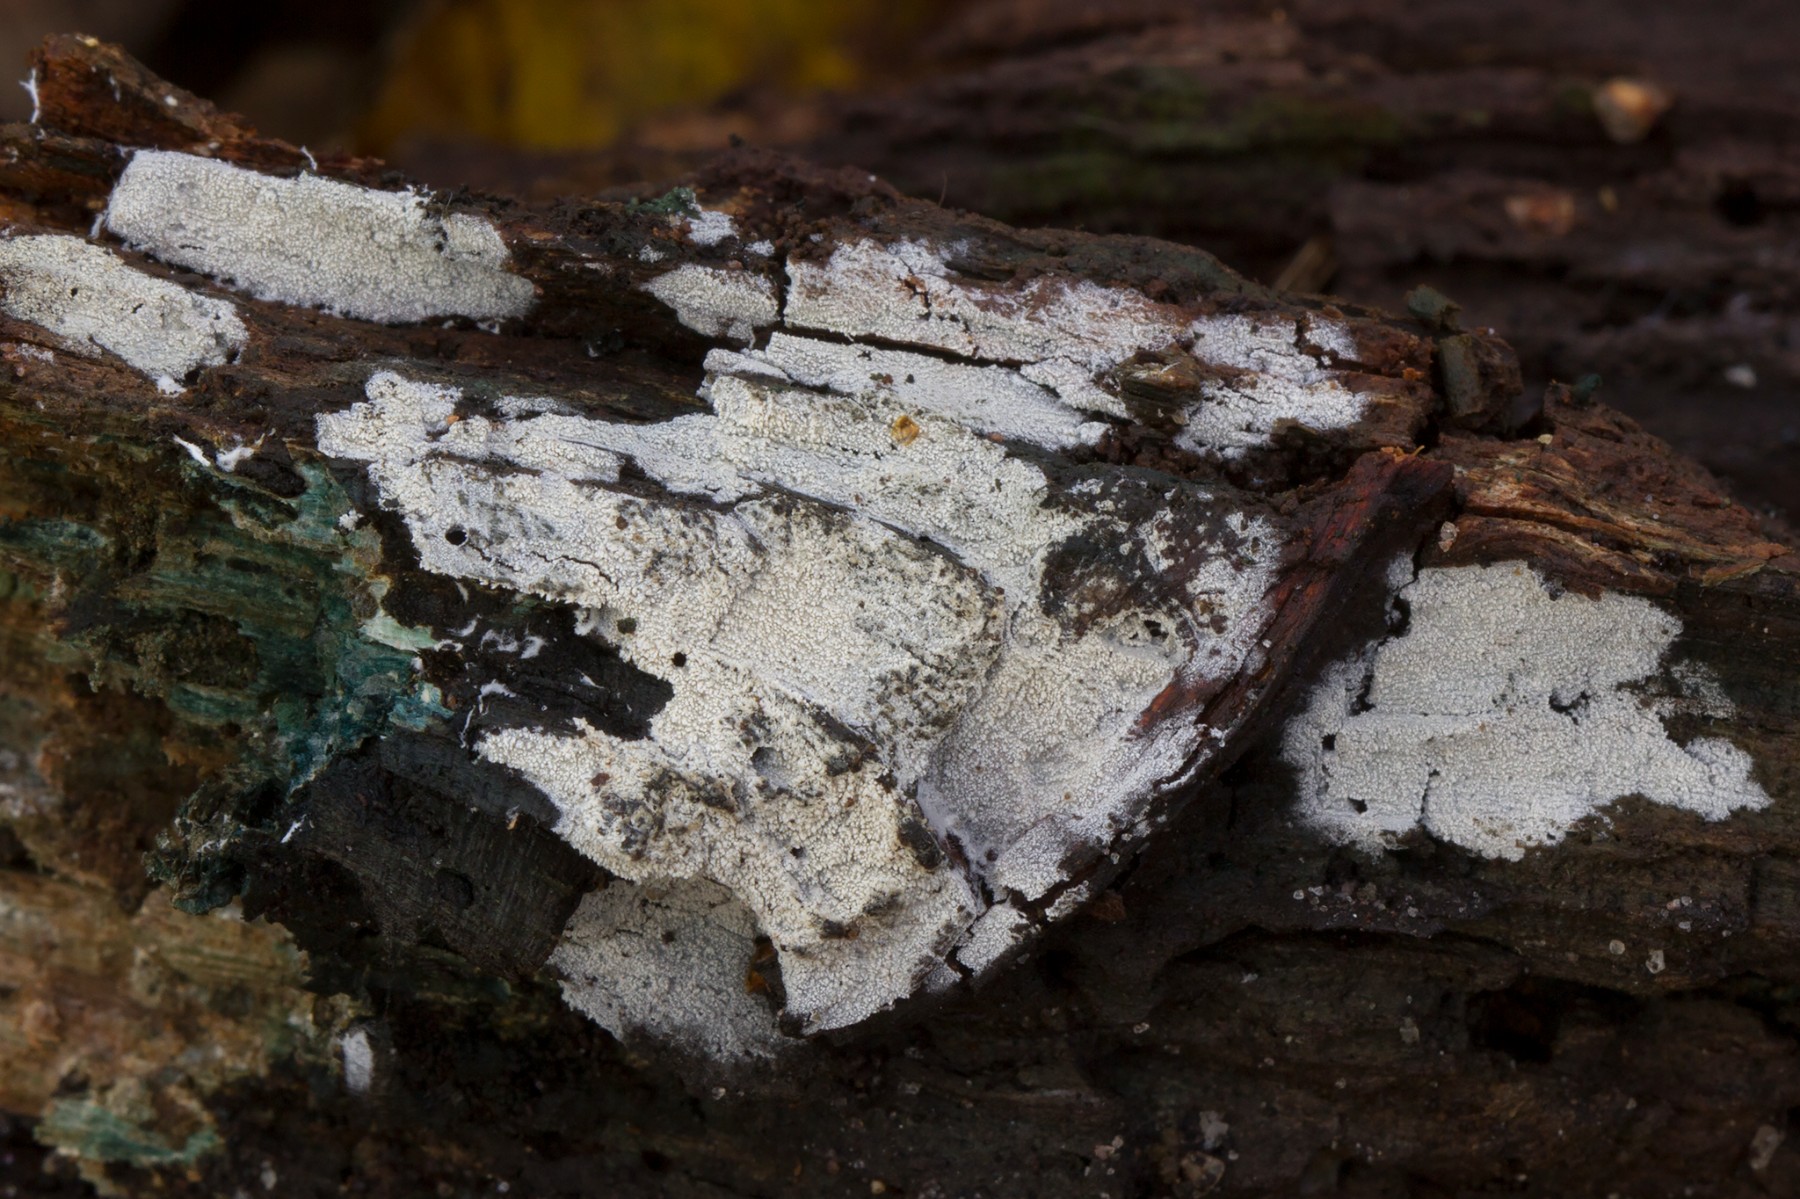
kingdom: Fungi
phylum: Basidiomycota
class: Agaricomycetes
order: Trechisporales
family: Sistotremataceae
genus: Trechispora
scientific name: Trechispora nivea
